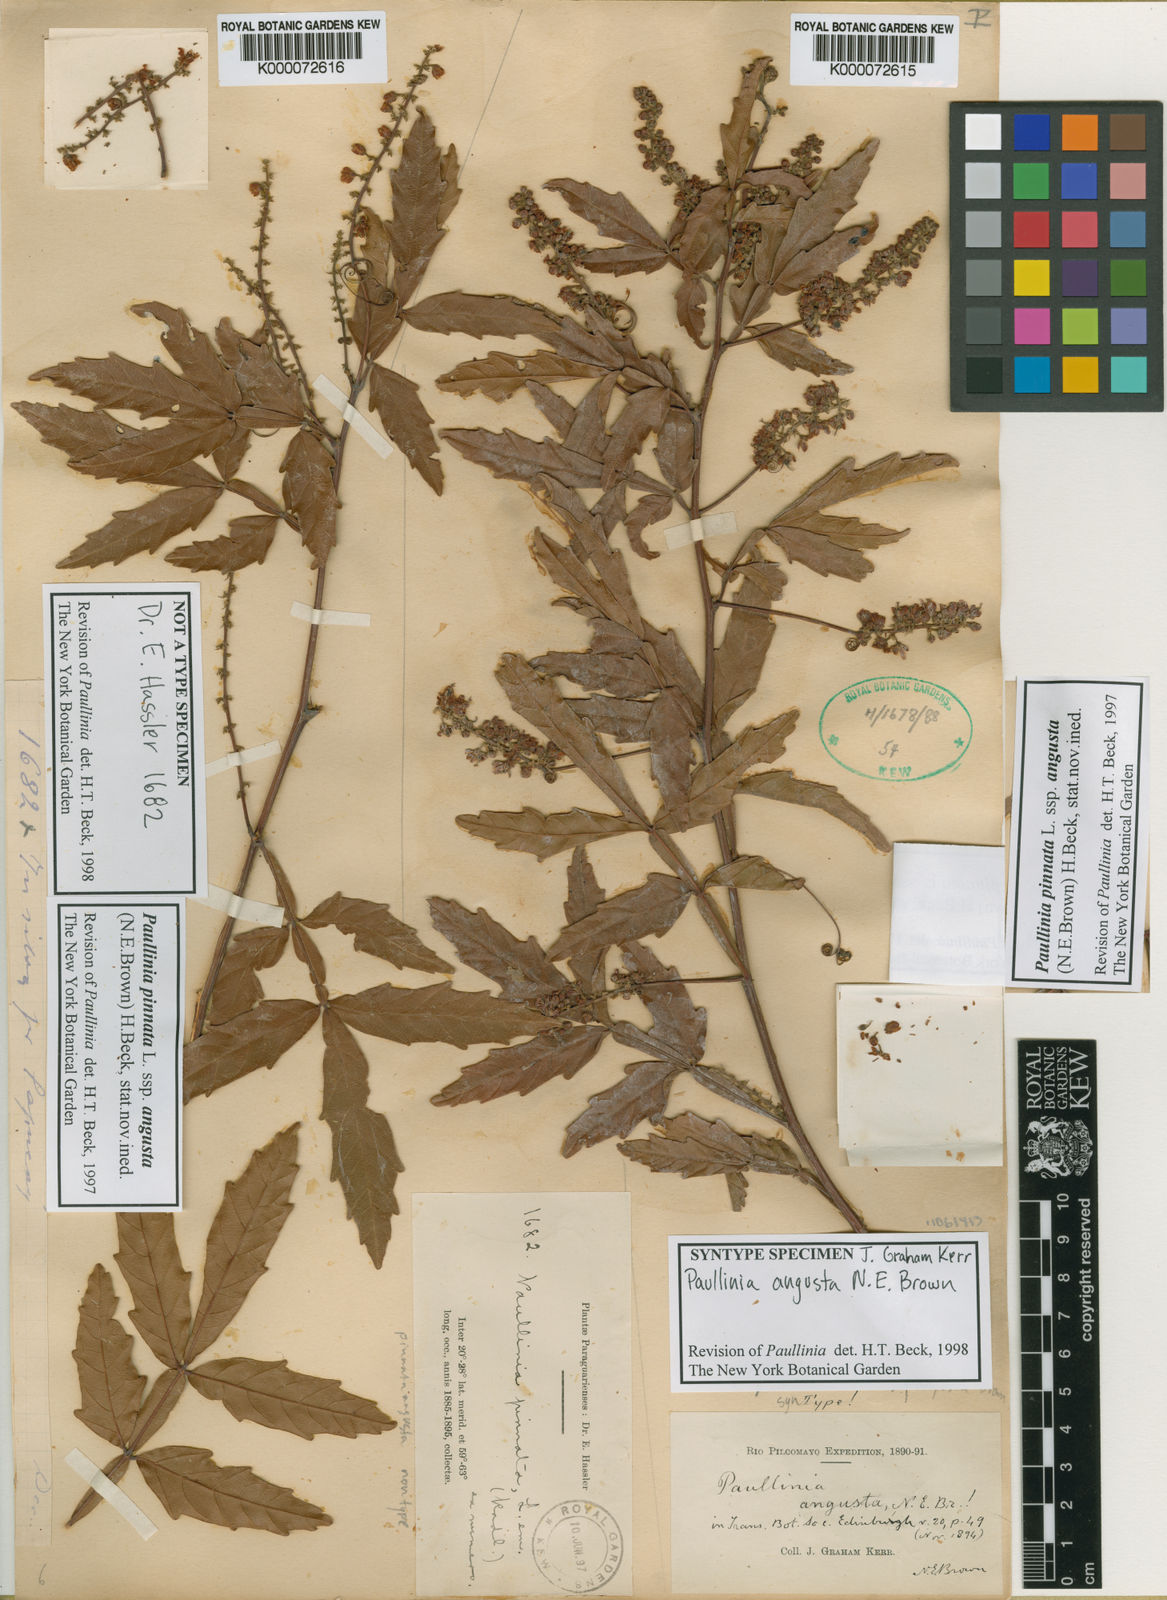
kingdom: Plantae
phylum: Tracheophyta
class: Magnoliopsida
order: Sapindales
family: Sapindaceae
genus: Paullinia
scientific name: Paullinia pinnata
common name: Barbasco
